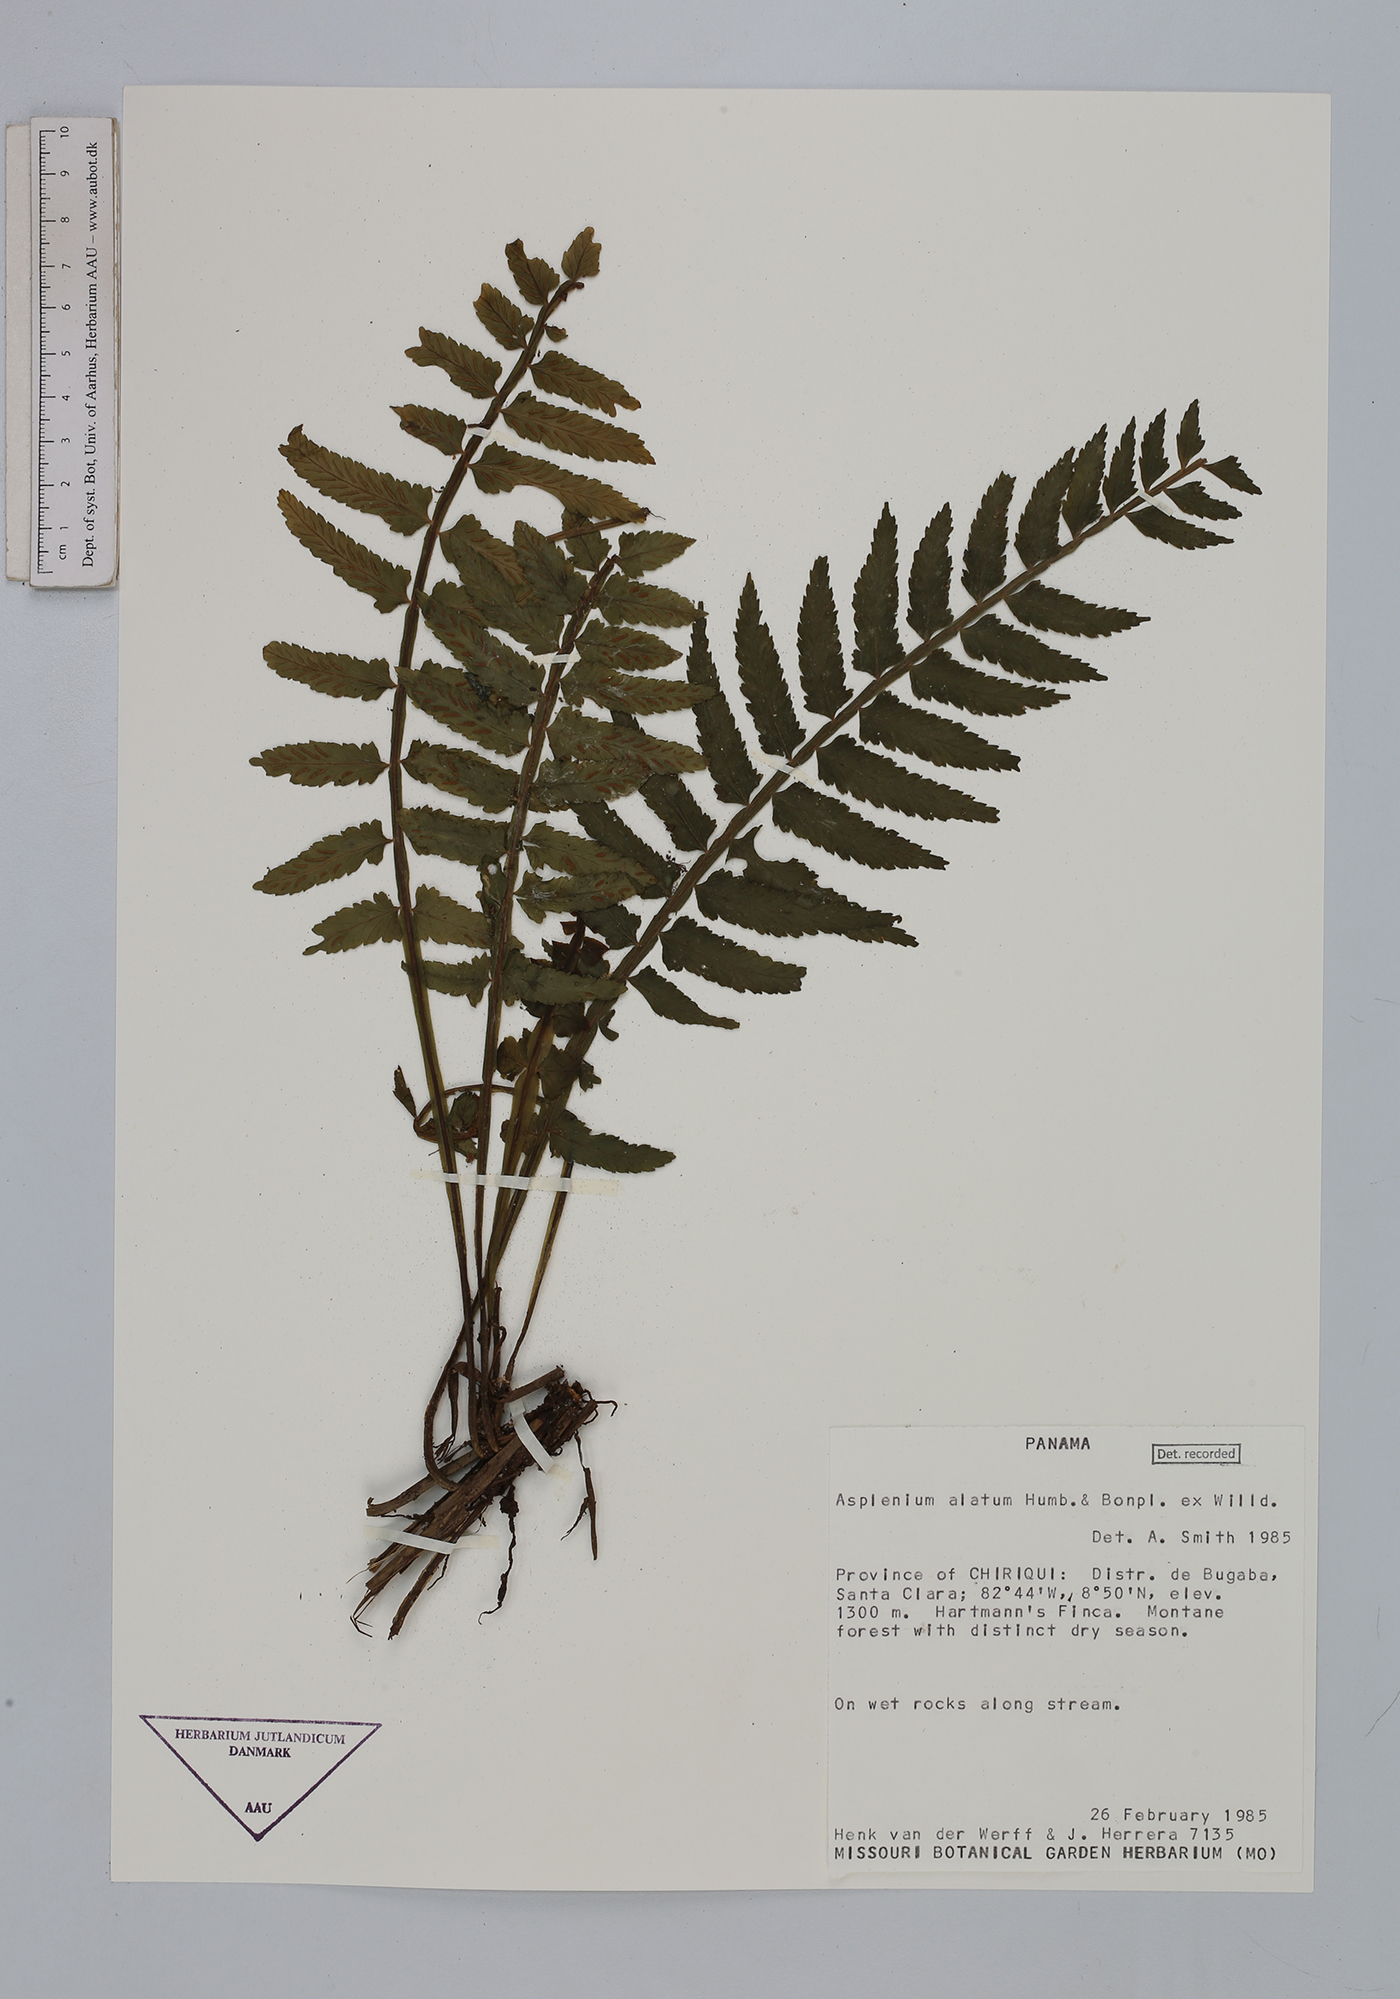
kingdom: Plantae
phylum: Tracheophyta
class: Polypodiopsida
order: Polypodiales
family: Aspleniaceae
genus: Asplenium
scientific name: Asplenium alatum
